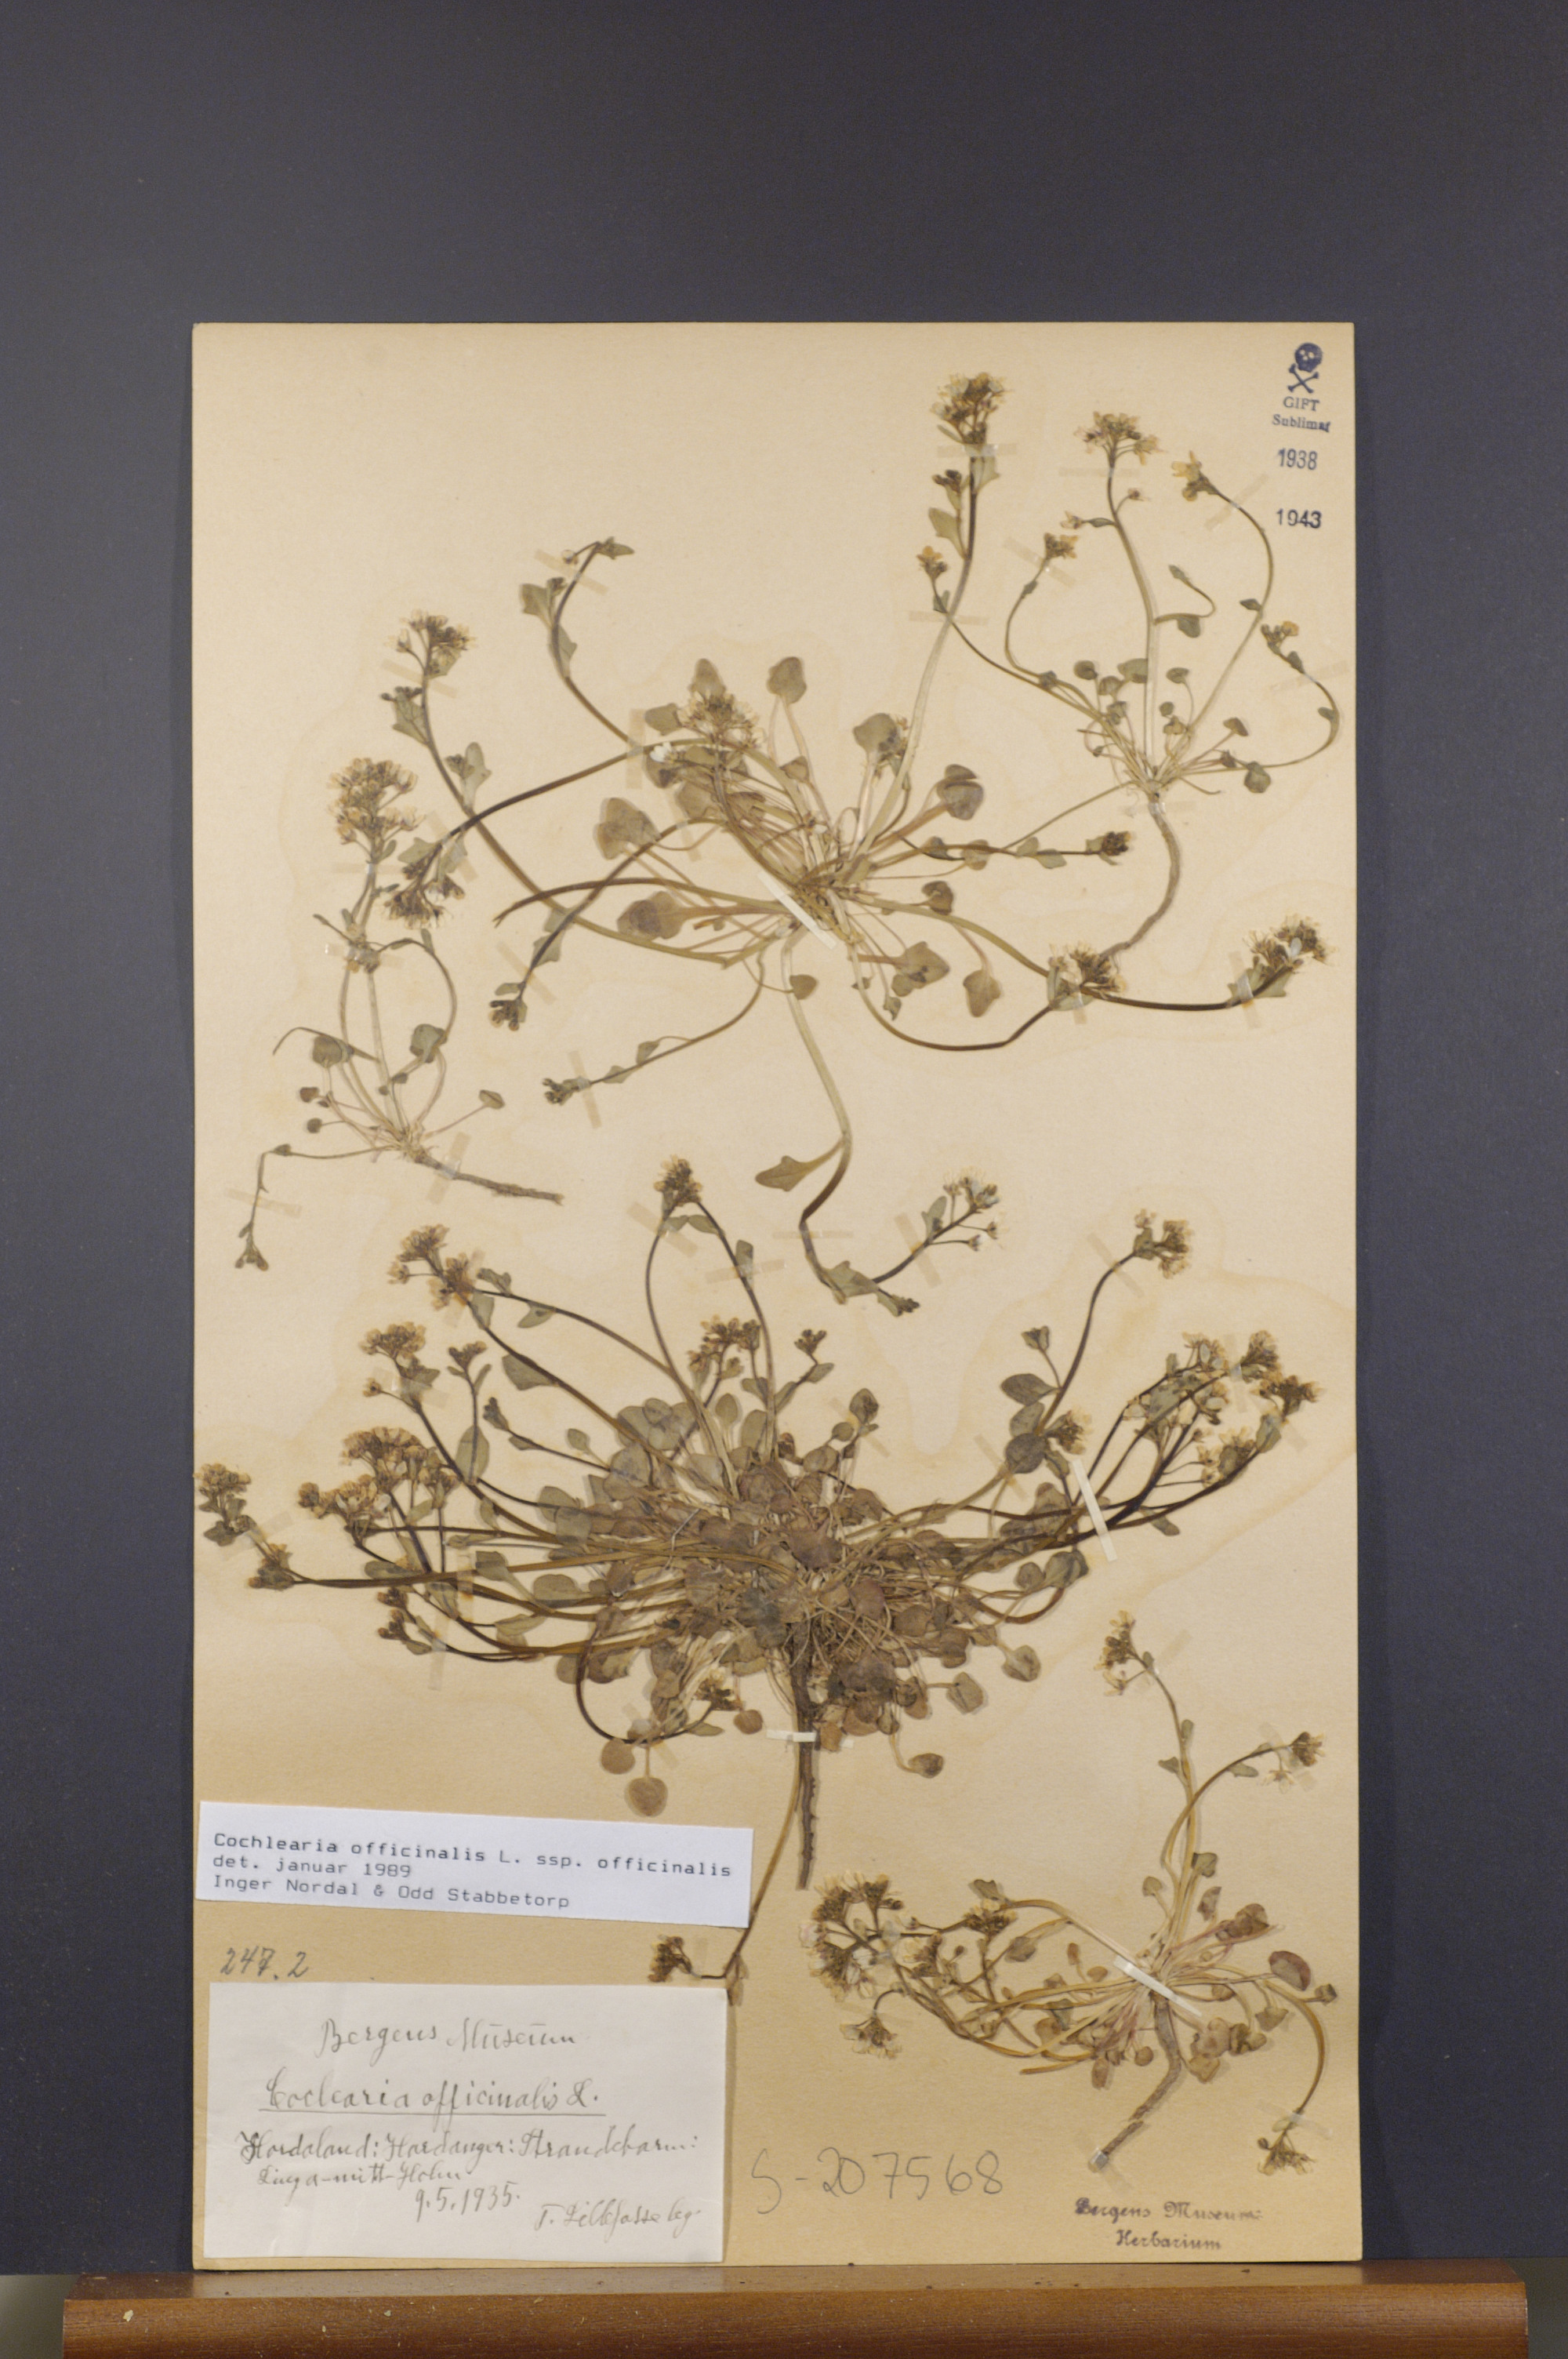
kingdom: Plantae
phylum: Tracheophyta
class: Magnoliopsida
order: Brassicales
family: Brassicaceae
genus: Cochlearia
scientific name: Cochlearia officinalis
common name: Scurvy-grass
